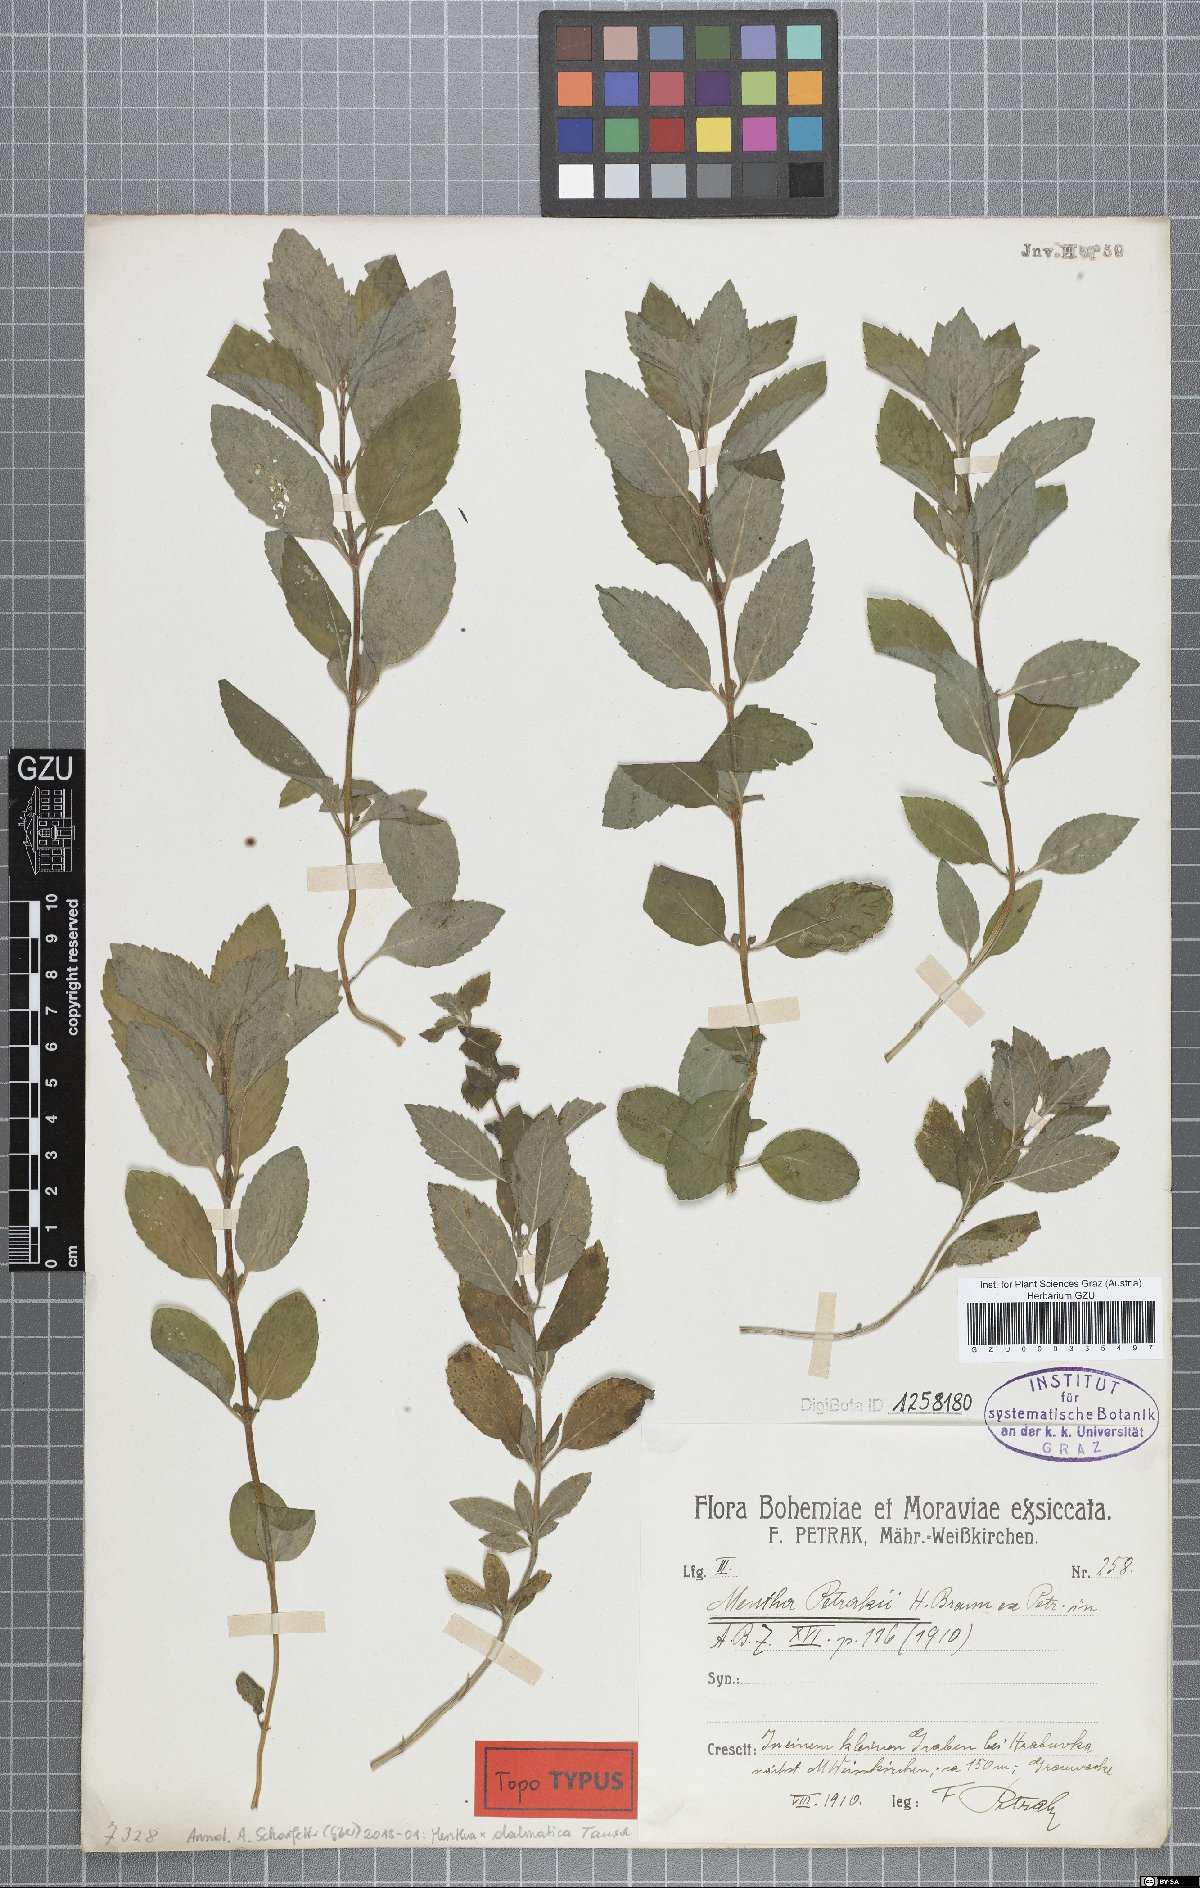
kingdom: Plantae
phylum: Tracheophyta
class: Magnoliopsida
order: Lamiales
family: Lamiaceae
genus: Mentha
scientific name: Mentha dalmatica
